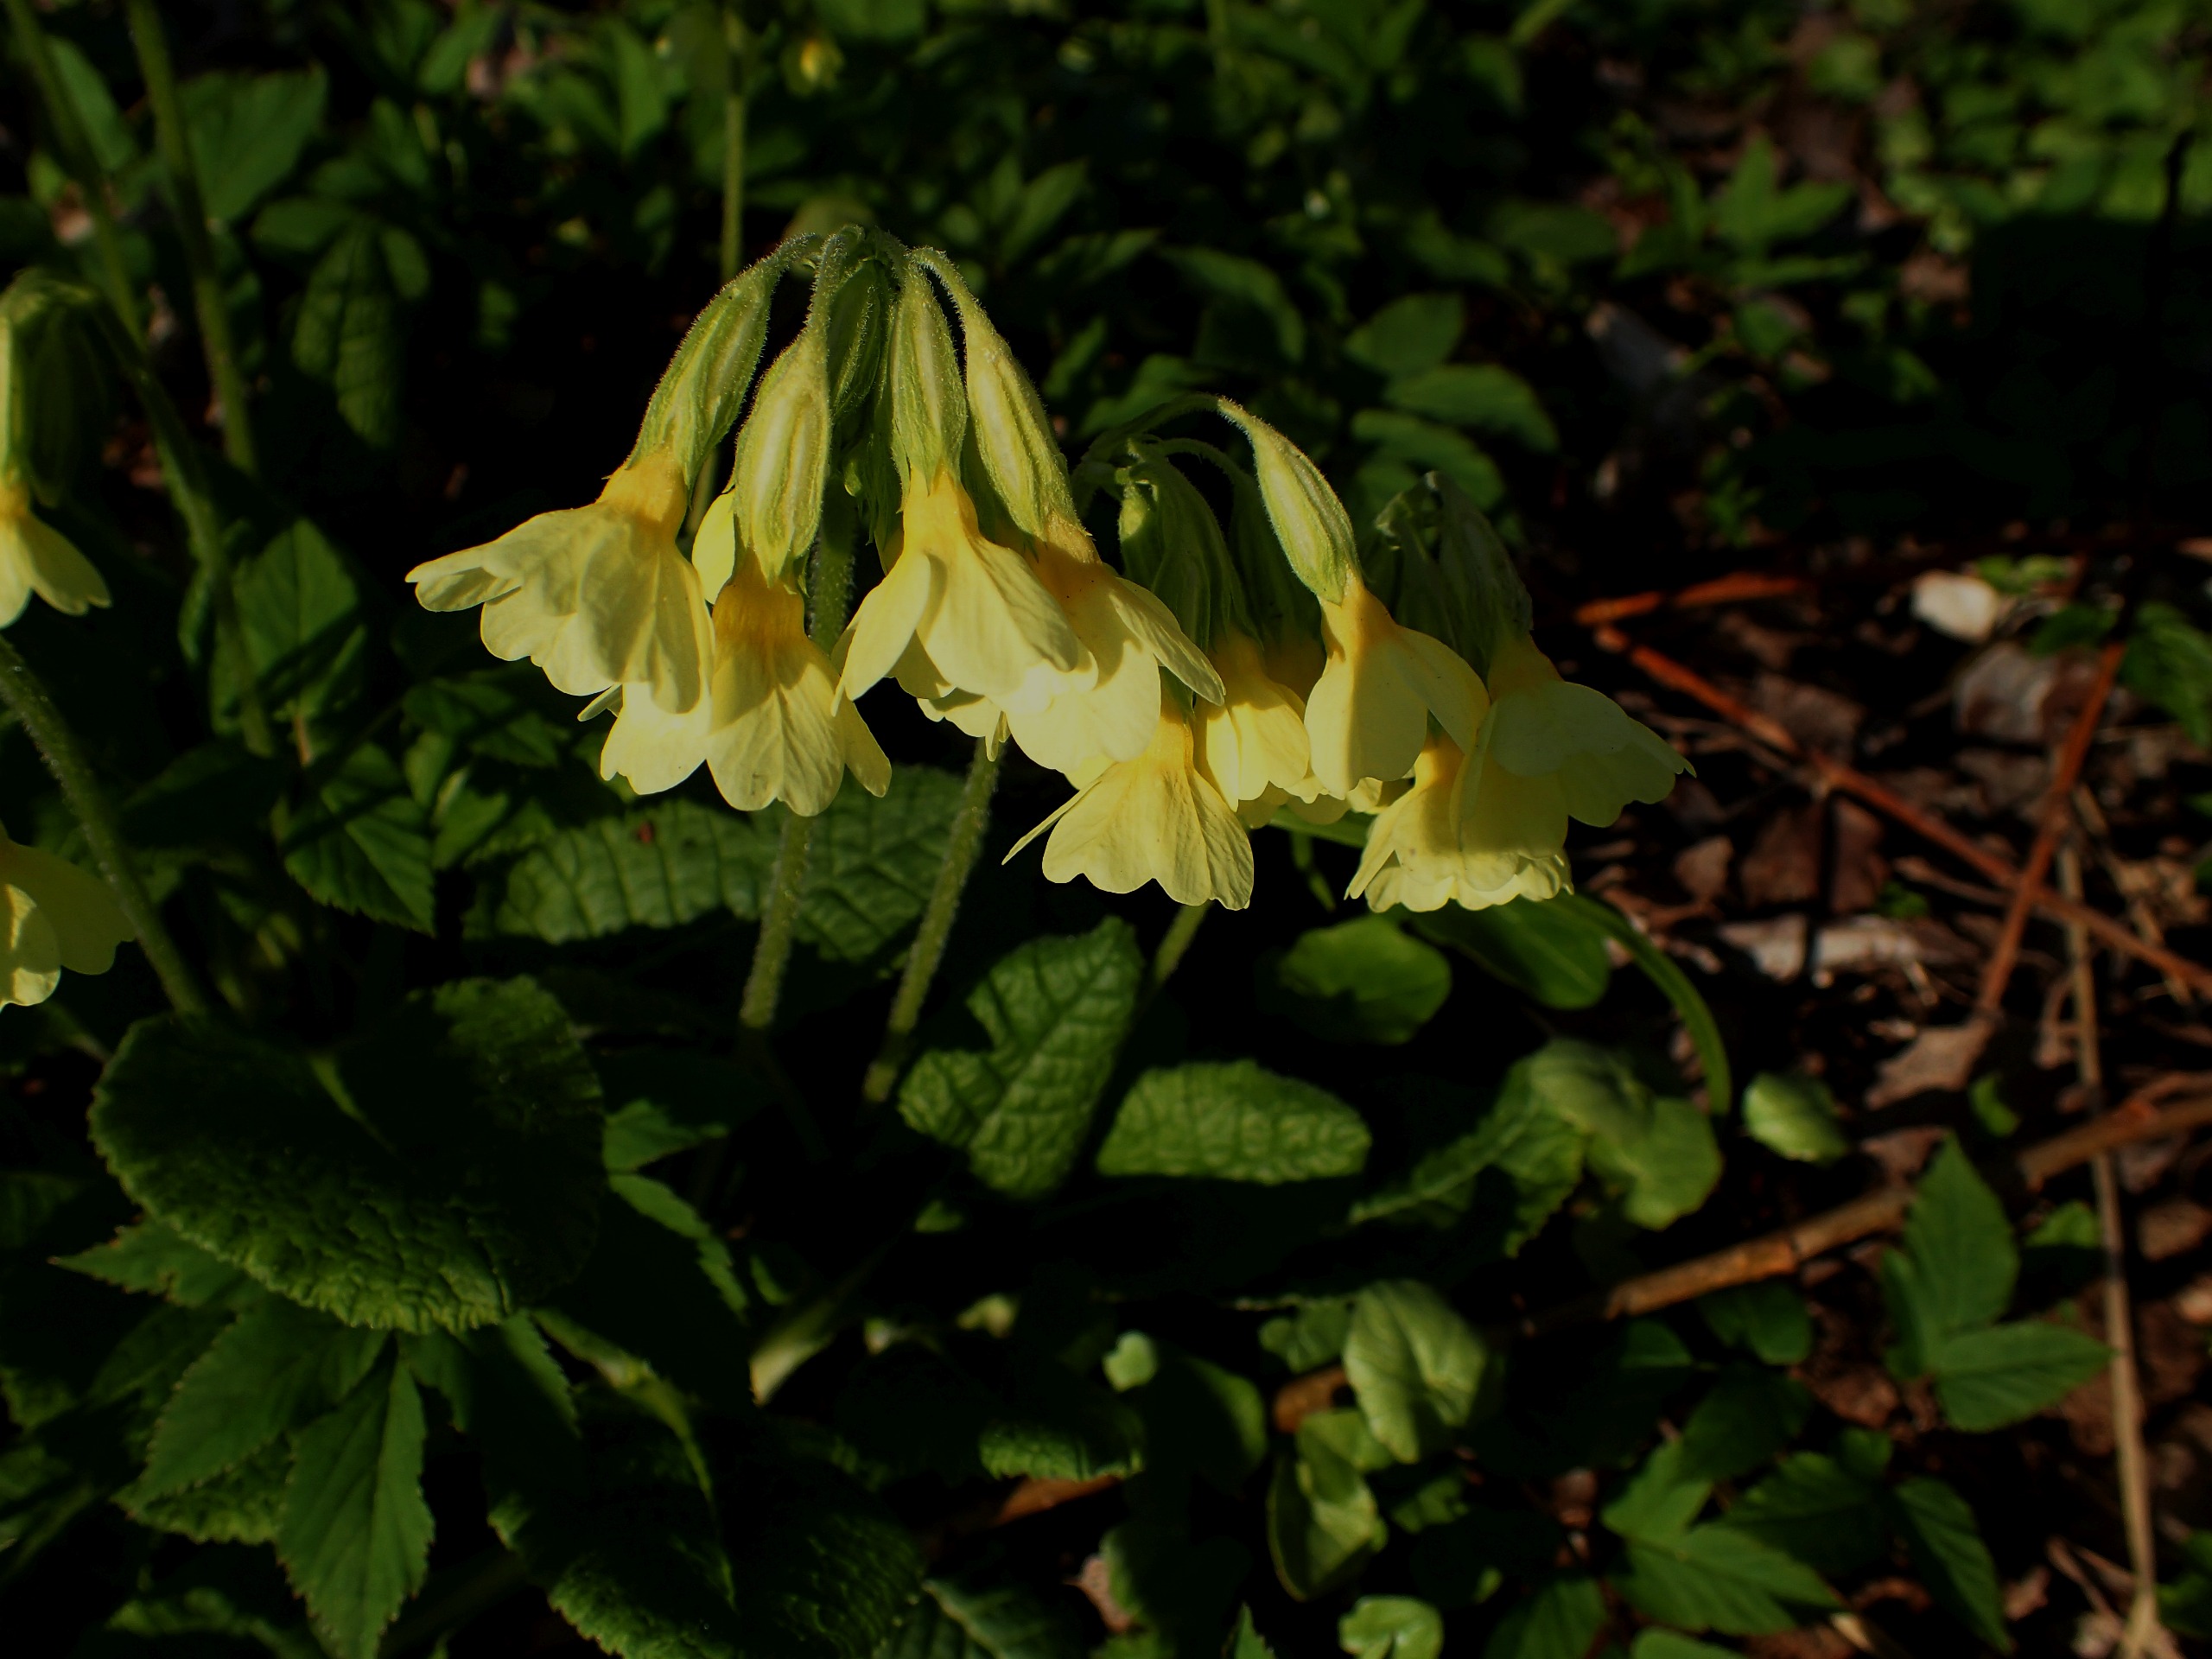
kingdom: Plantae
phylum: Tracheophyta
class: Magnoliopsida
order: Ericales
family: Primulaceae
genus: Primula
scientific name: Primula elatior
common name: Fladkravet kodriver
